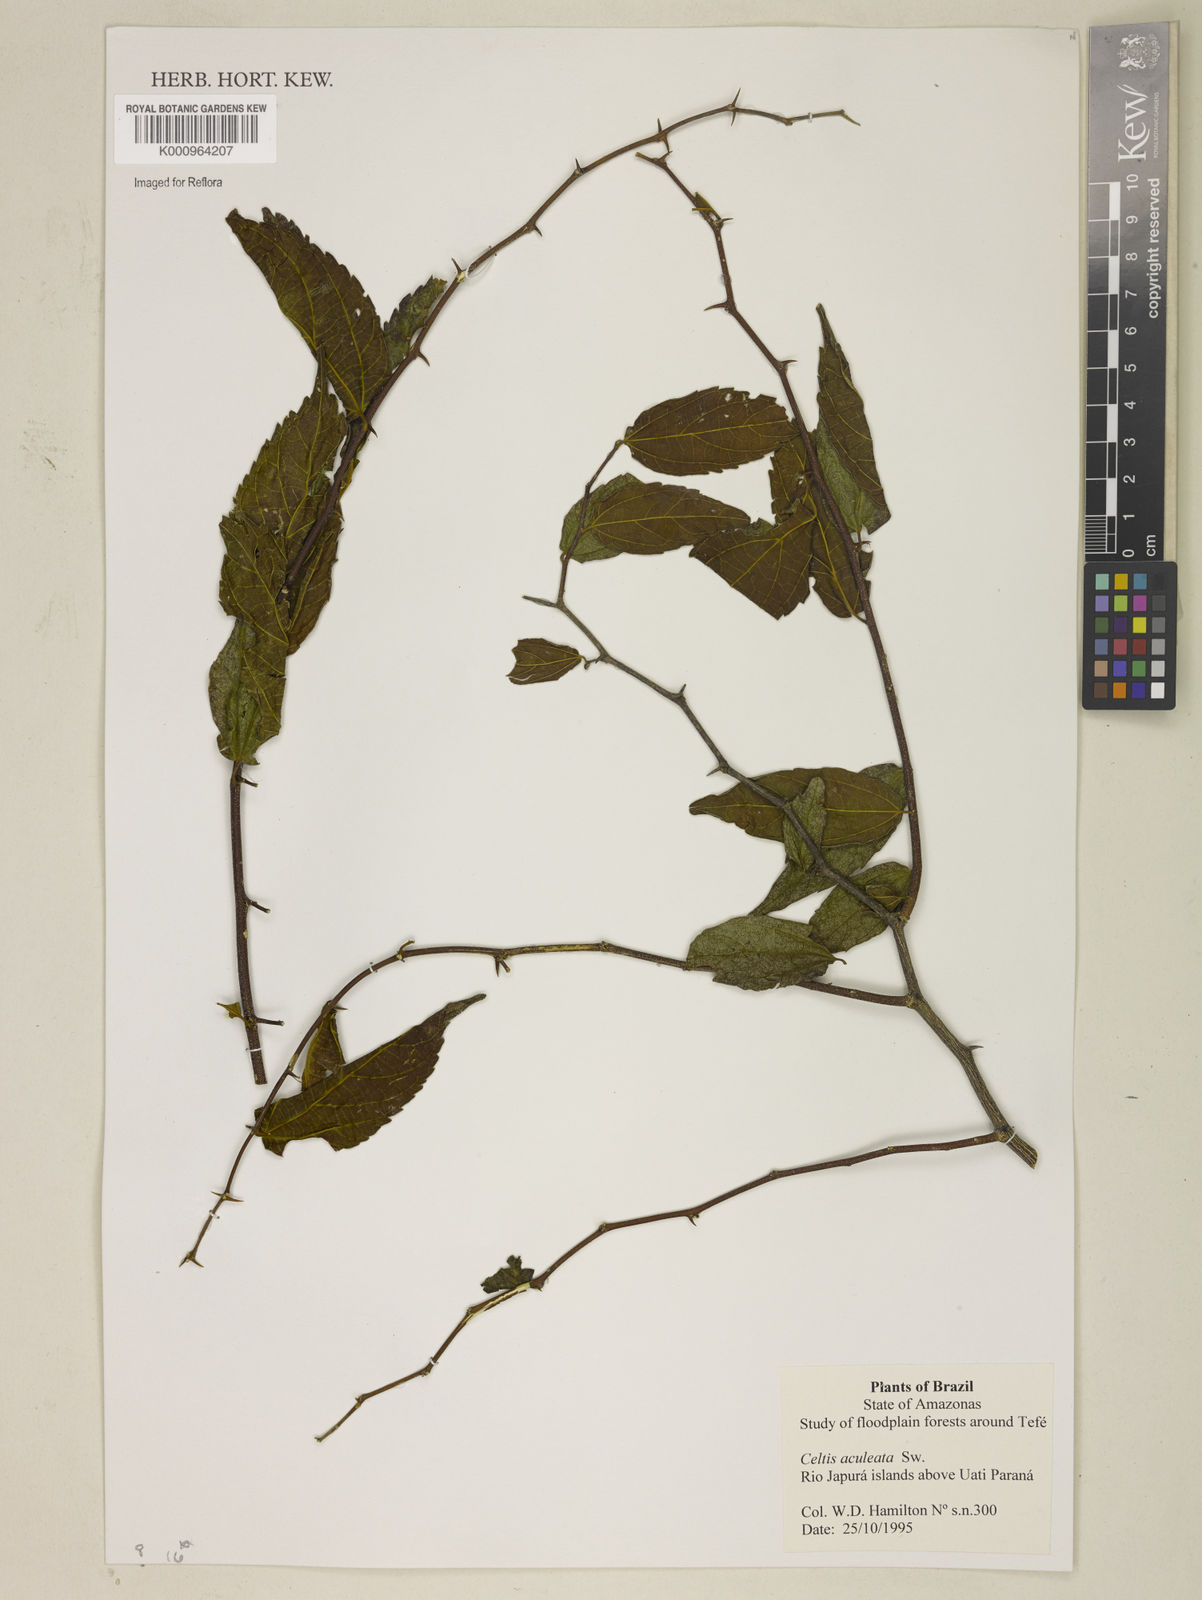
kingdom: Plantae
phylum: Tracheophyta
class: Magnoliopsida
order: Rosales
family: Cannabaceae
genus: Celtis
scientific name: Celtis iguanaea
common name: Iguana hackberry
